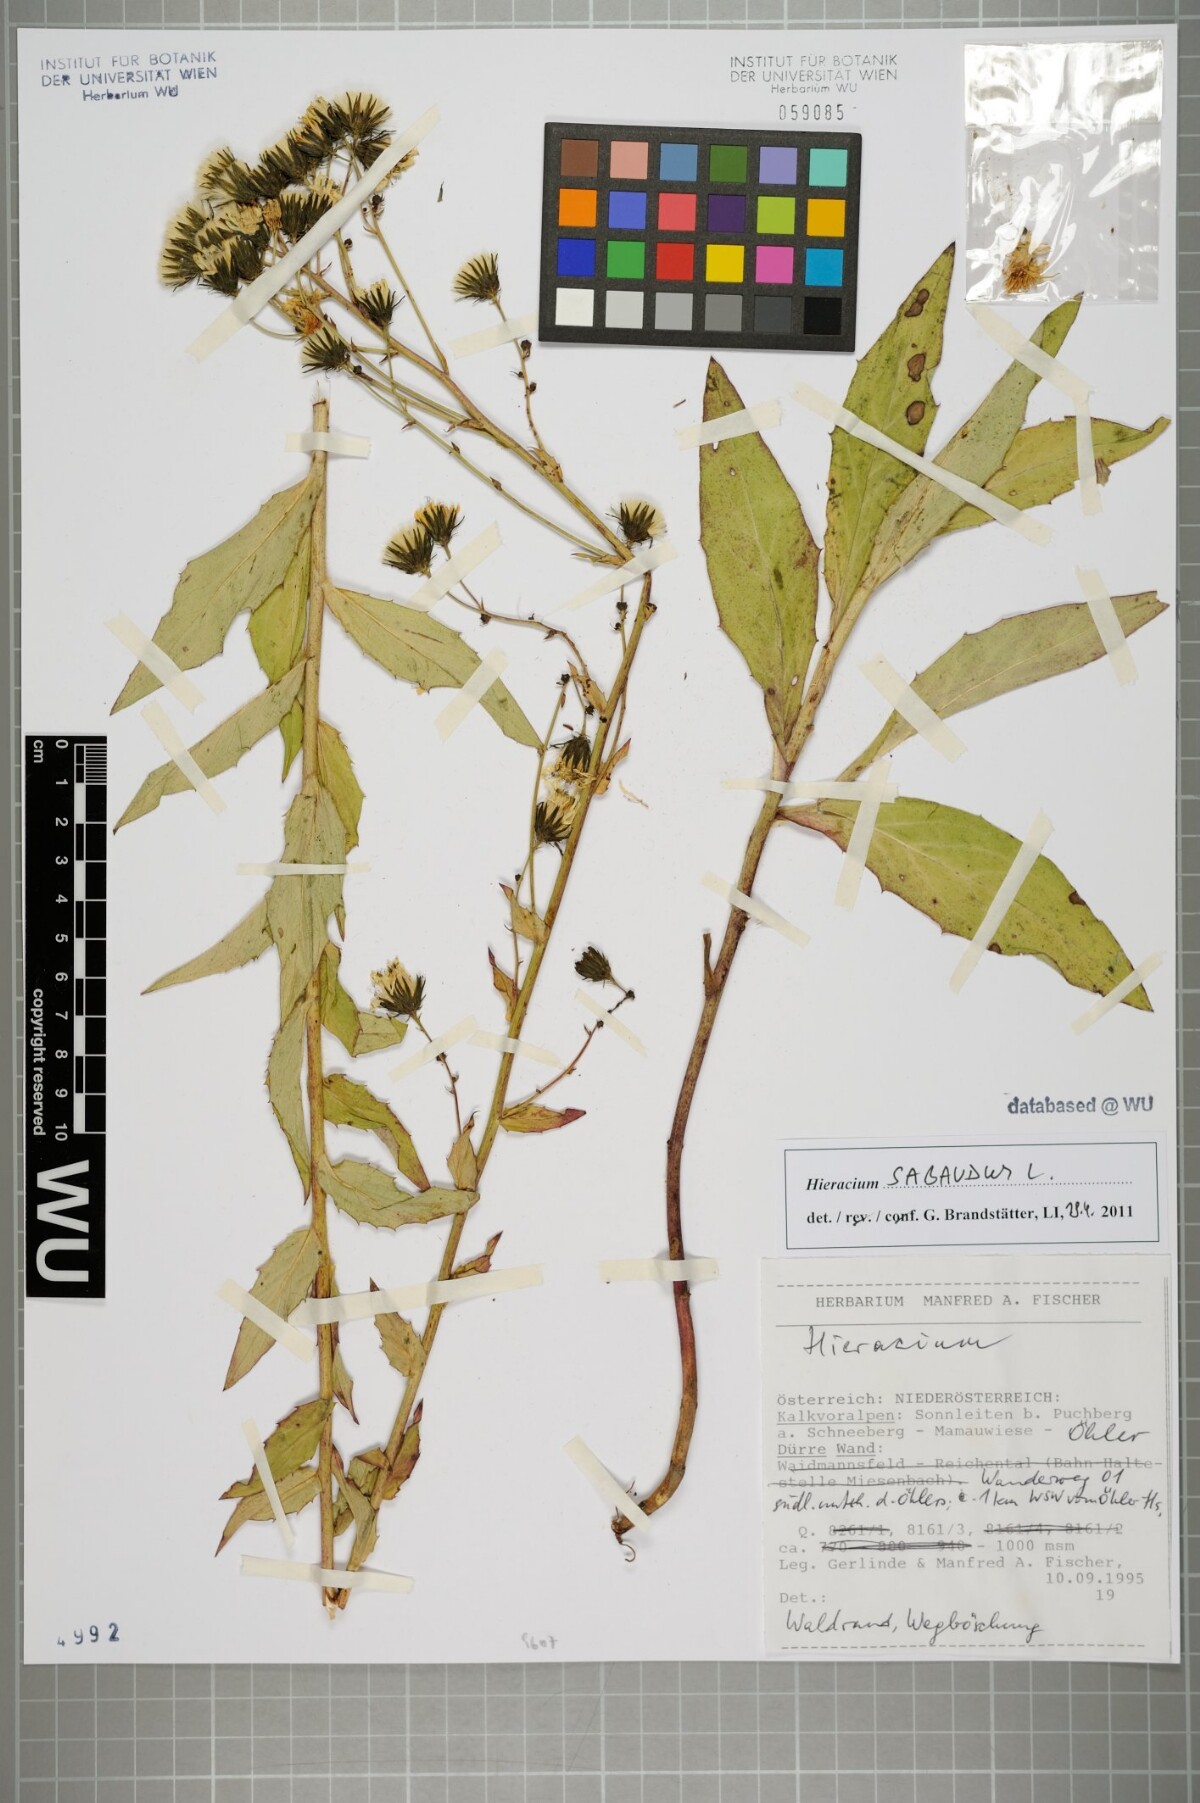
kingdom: Plantae
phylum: Tracheophyta
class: Magnoliopsida
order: Asterales
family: Asteraceae
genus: Hieracium
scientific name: Hieracium sabaudum
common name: New england hawkweed
